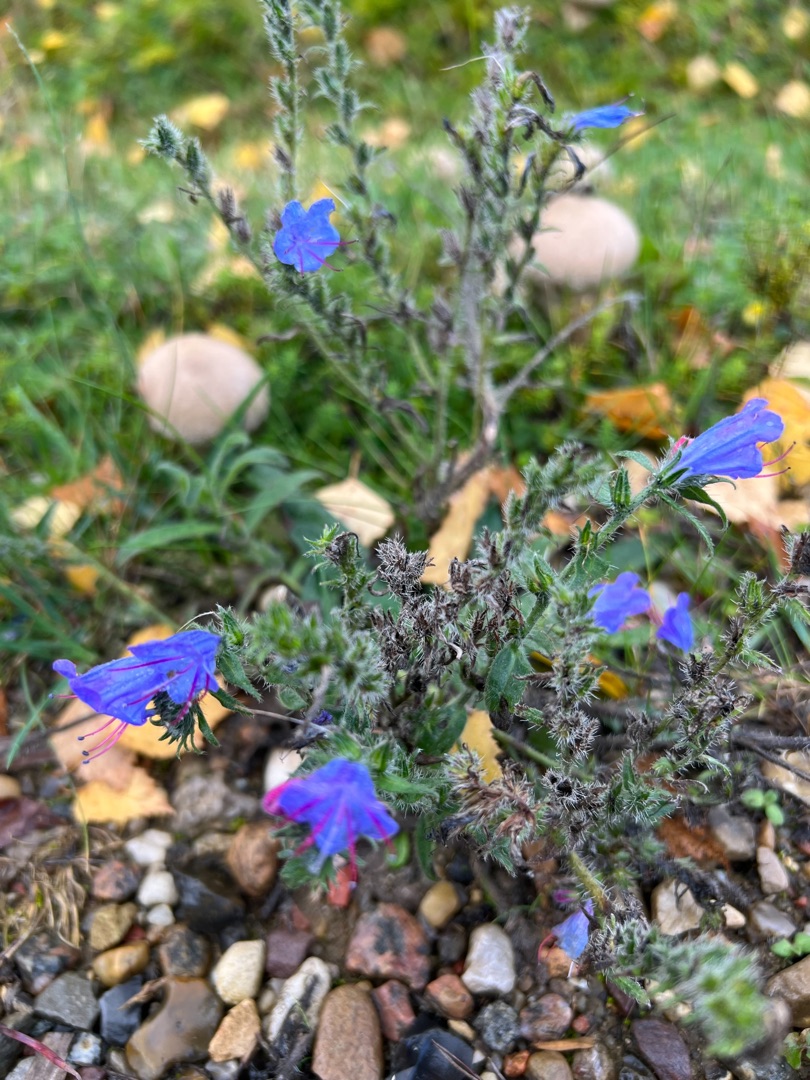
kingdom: Plantae
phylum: Tracheophyta
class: Magnoliopsida
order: Boraginales
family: Boraginaceae
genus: Echium
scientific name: Echium vulgare
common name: Slangehoved
